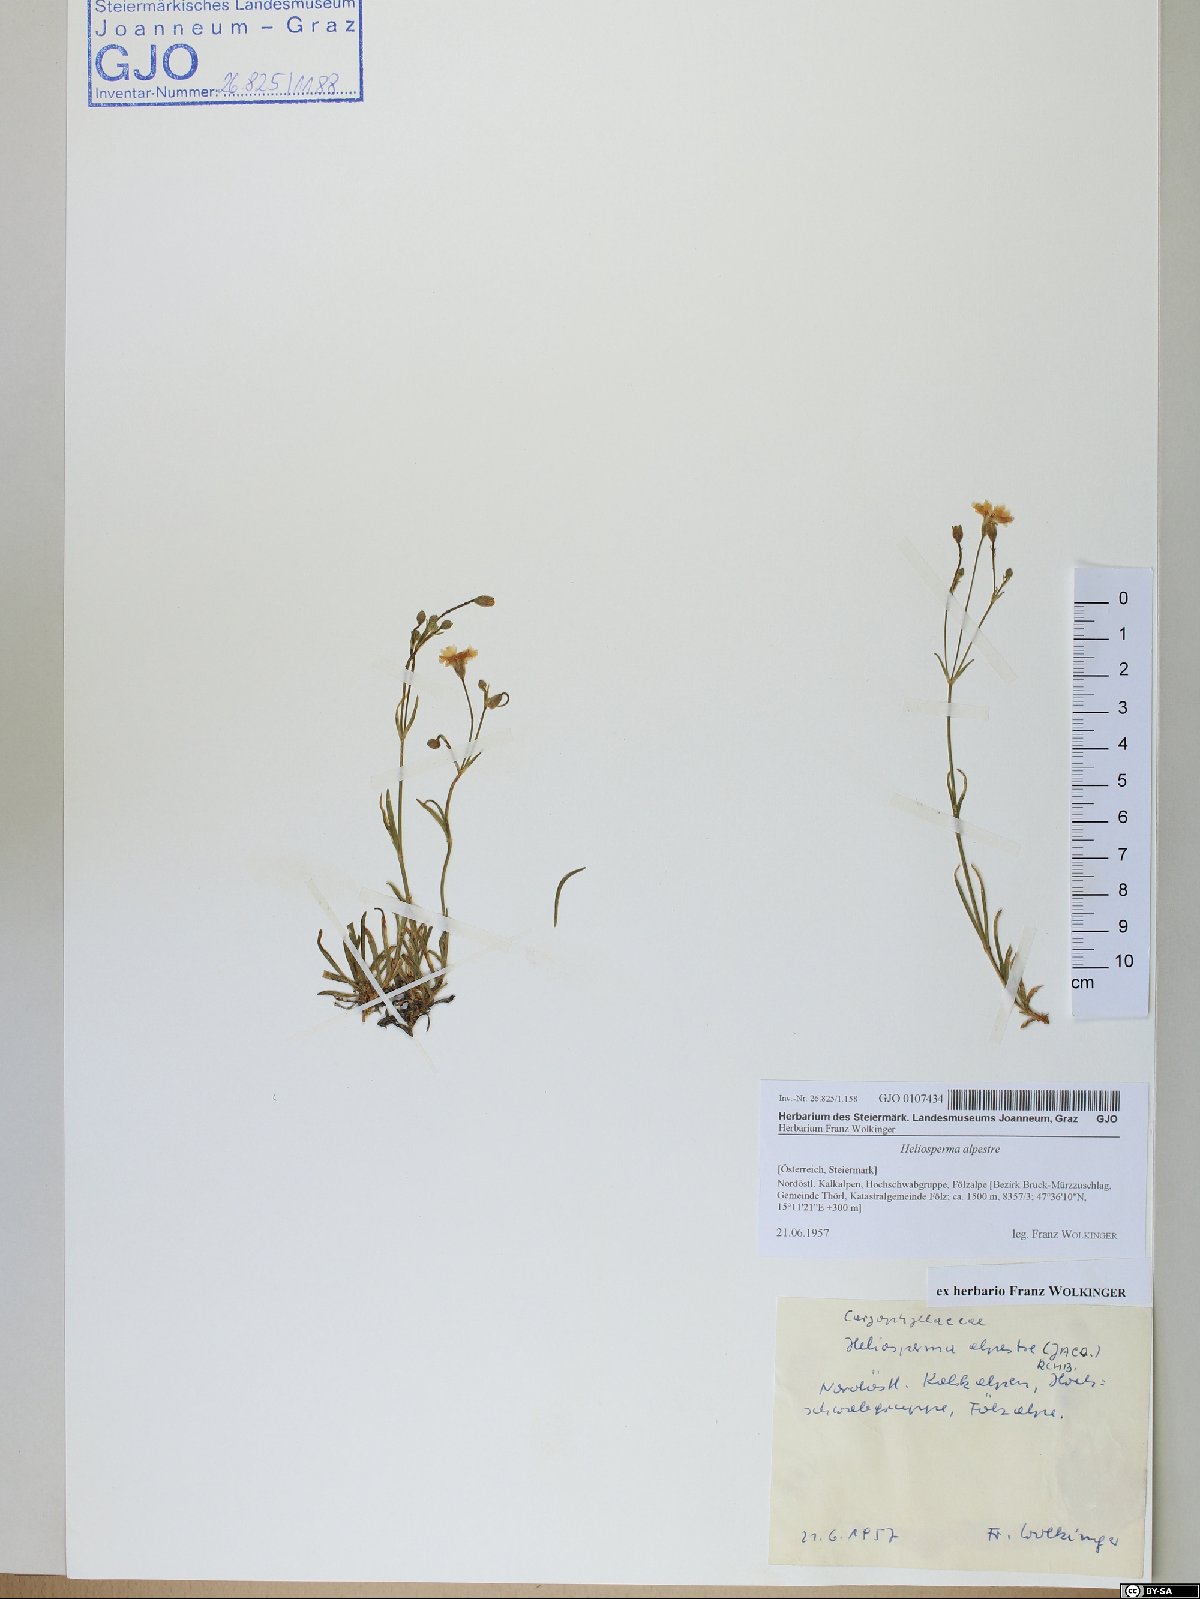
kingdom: Plantae
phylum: Tracheophyta
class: Magnoliopsida
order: Caryophyllales
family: Caryophyllaceae
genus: Heliosperma
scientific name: Heliosperma alpestre
